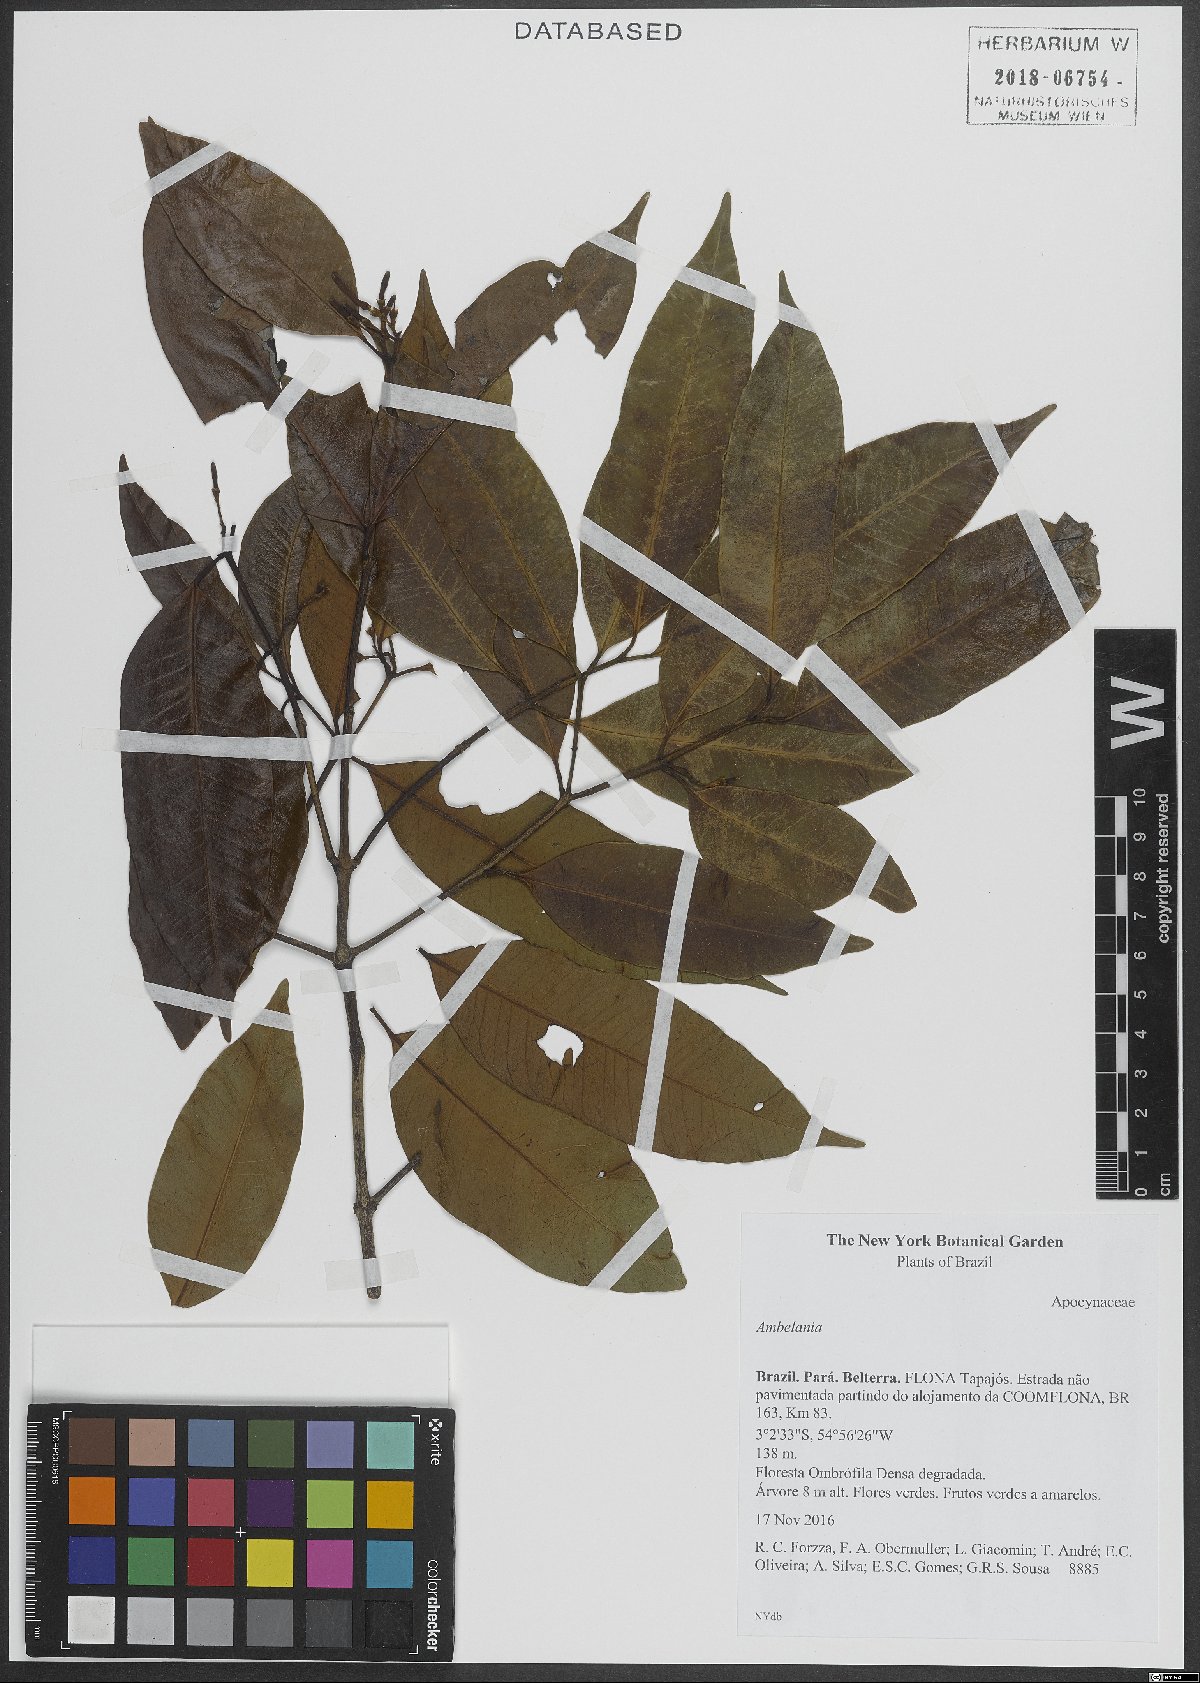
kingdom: Plantae
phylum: Tracheophyta
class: Magnoliopsida
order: Gentianales
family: Apocynaceae
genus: Ambelania
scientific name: Ambelania
